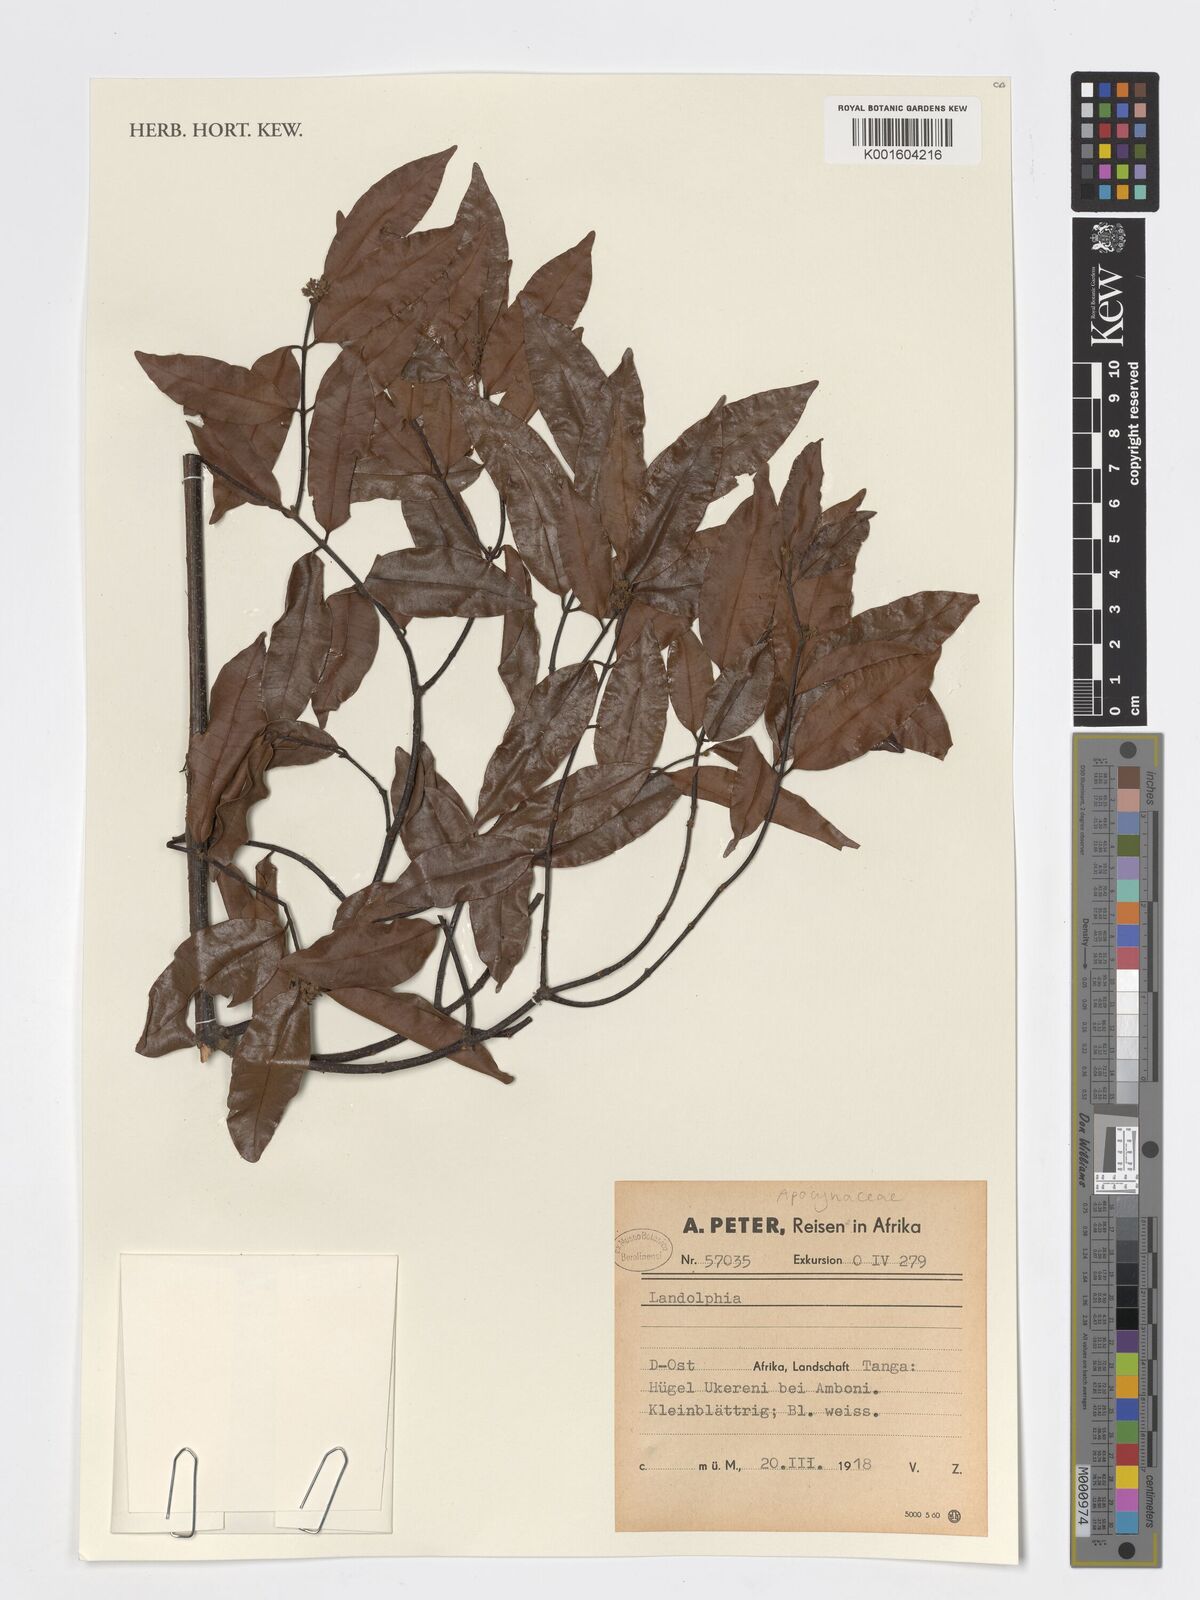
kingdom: Plantae
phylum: Tracheophyta
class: Magnoliopsida
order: Gentianales
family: Apocynaceae
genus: Landolphia
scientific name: Landolphia
